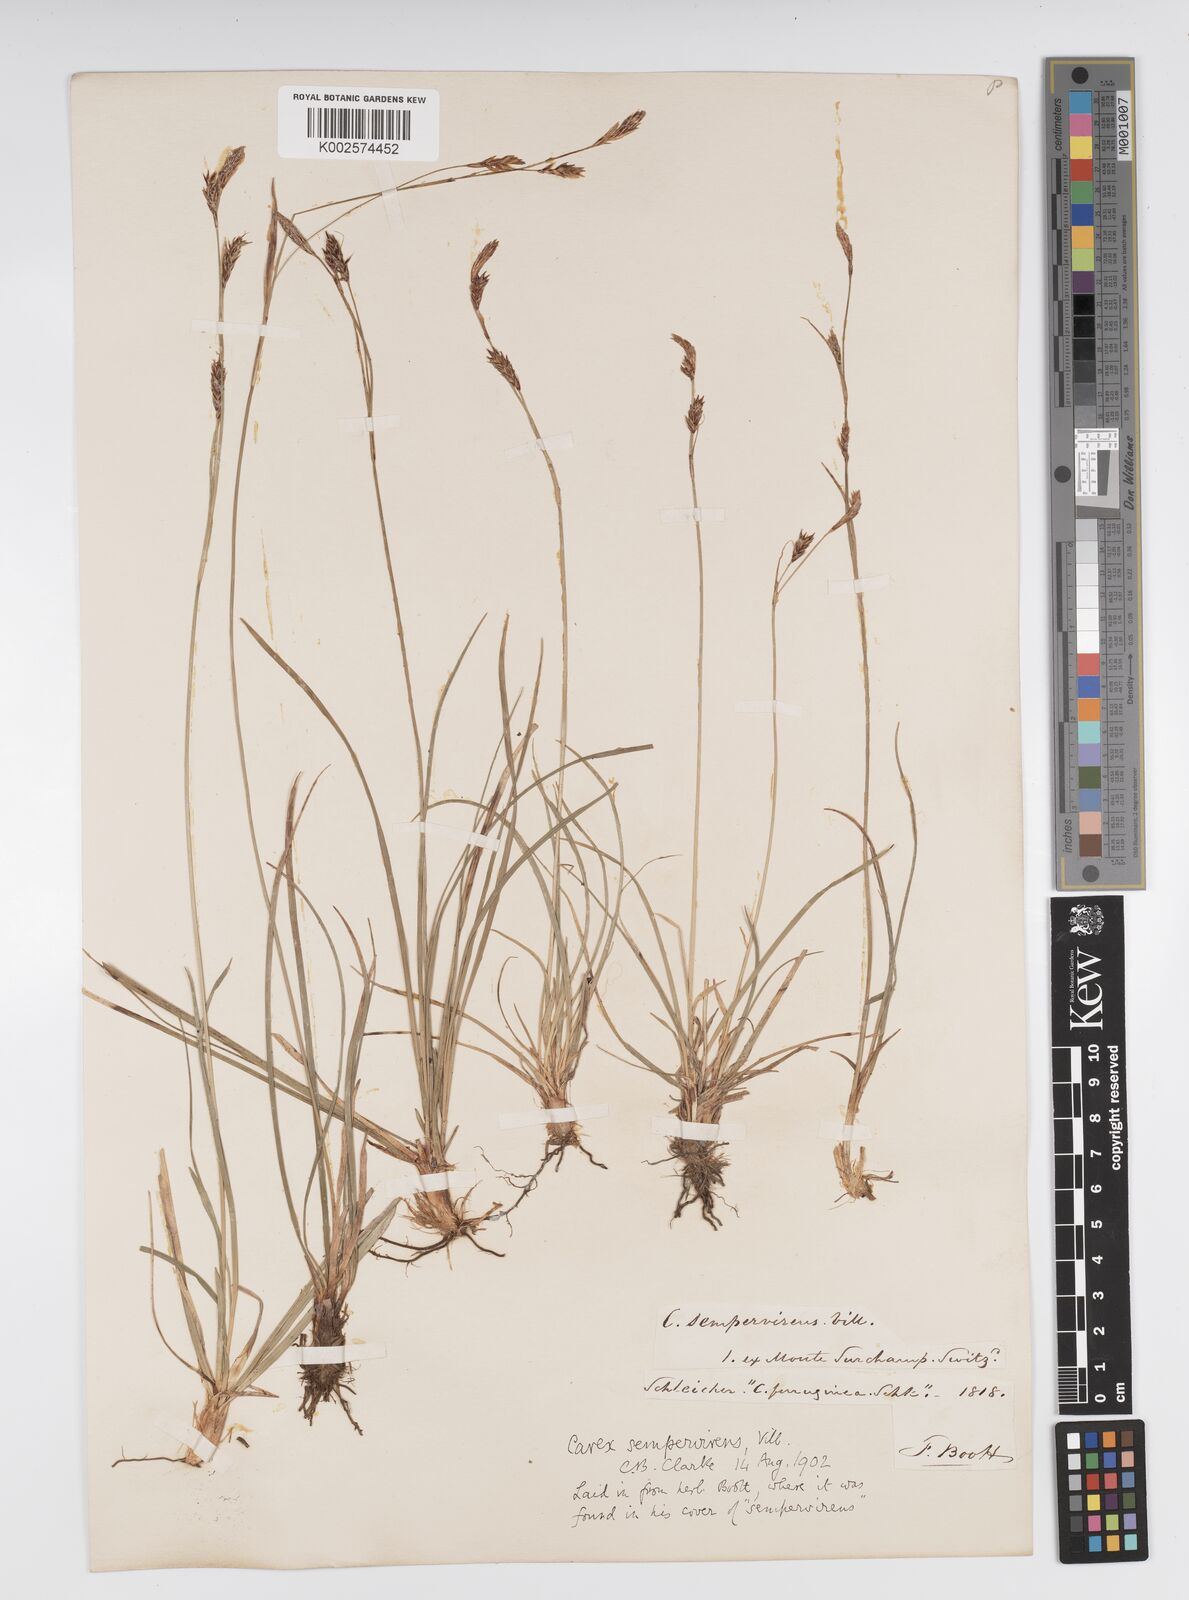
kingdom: Plantae
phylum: Tracheophyta
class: Liliopsida
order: Poales
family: Cyperaceae
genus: Carex
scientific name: Carex sempervirens
